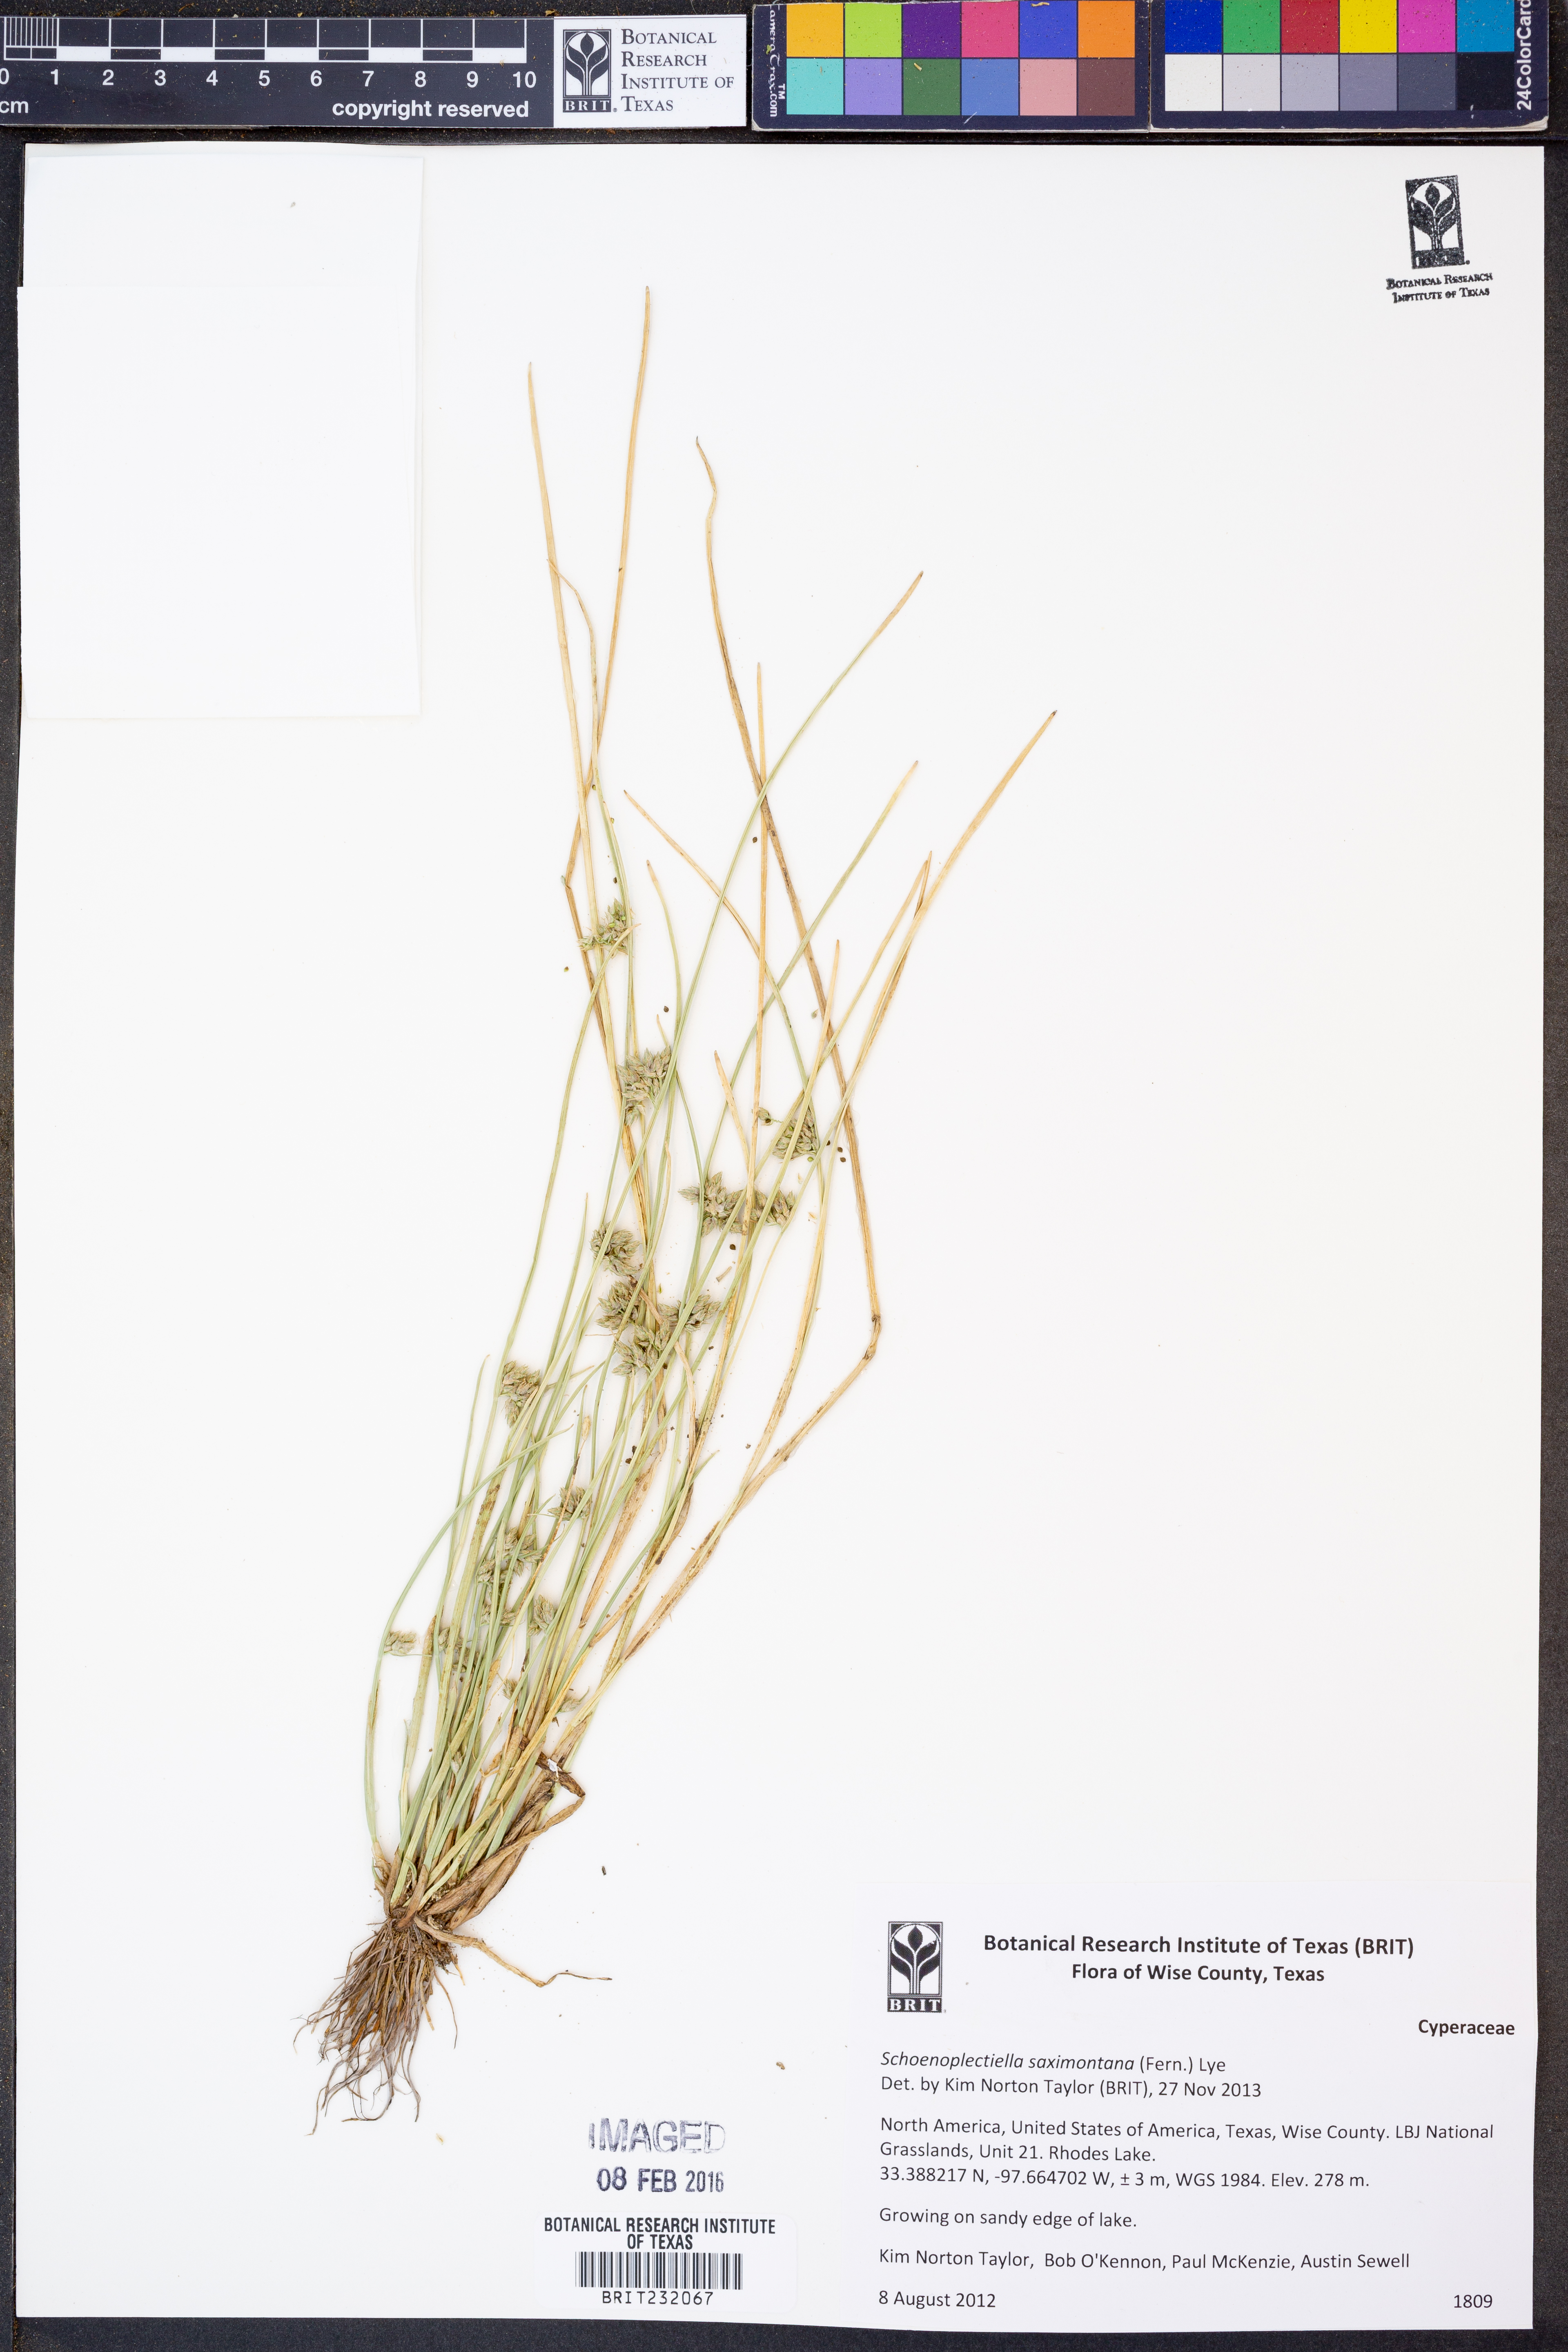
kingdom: Plantae
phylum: Tracheophyta
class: Liliopsida
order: Poales
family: Cyperaceae
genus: Schoenoplectiella
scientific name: Schoenoplectiella saximontana
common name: Rocky mountain clubrush
